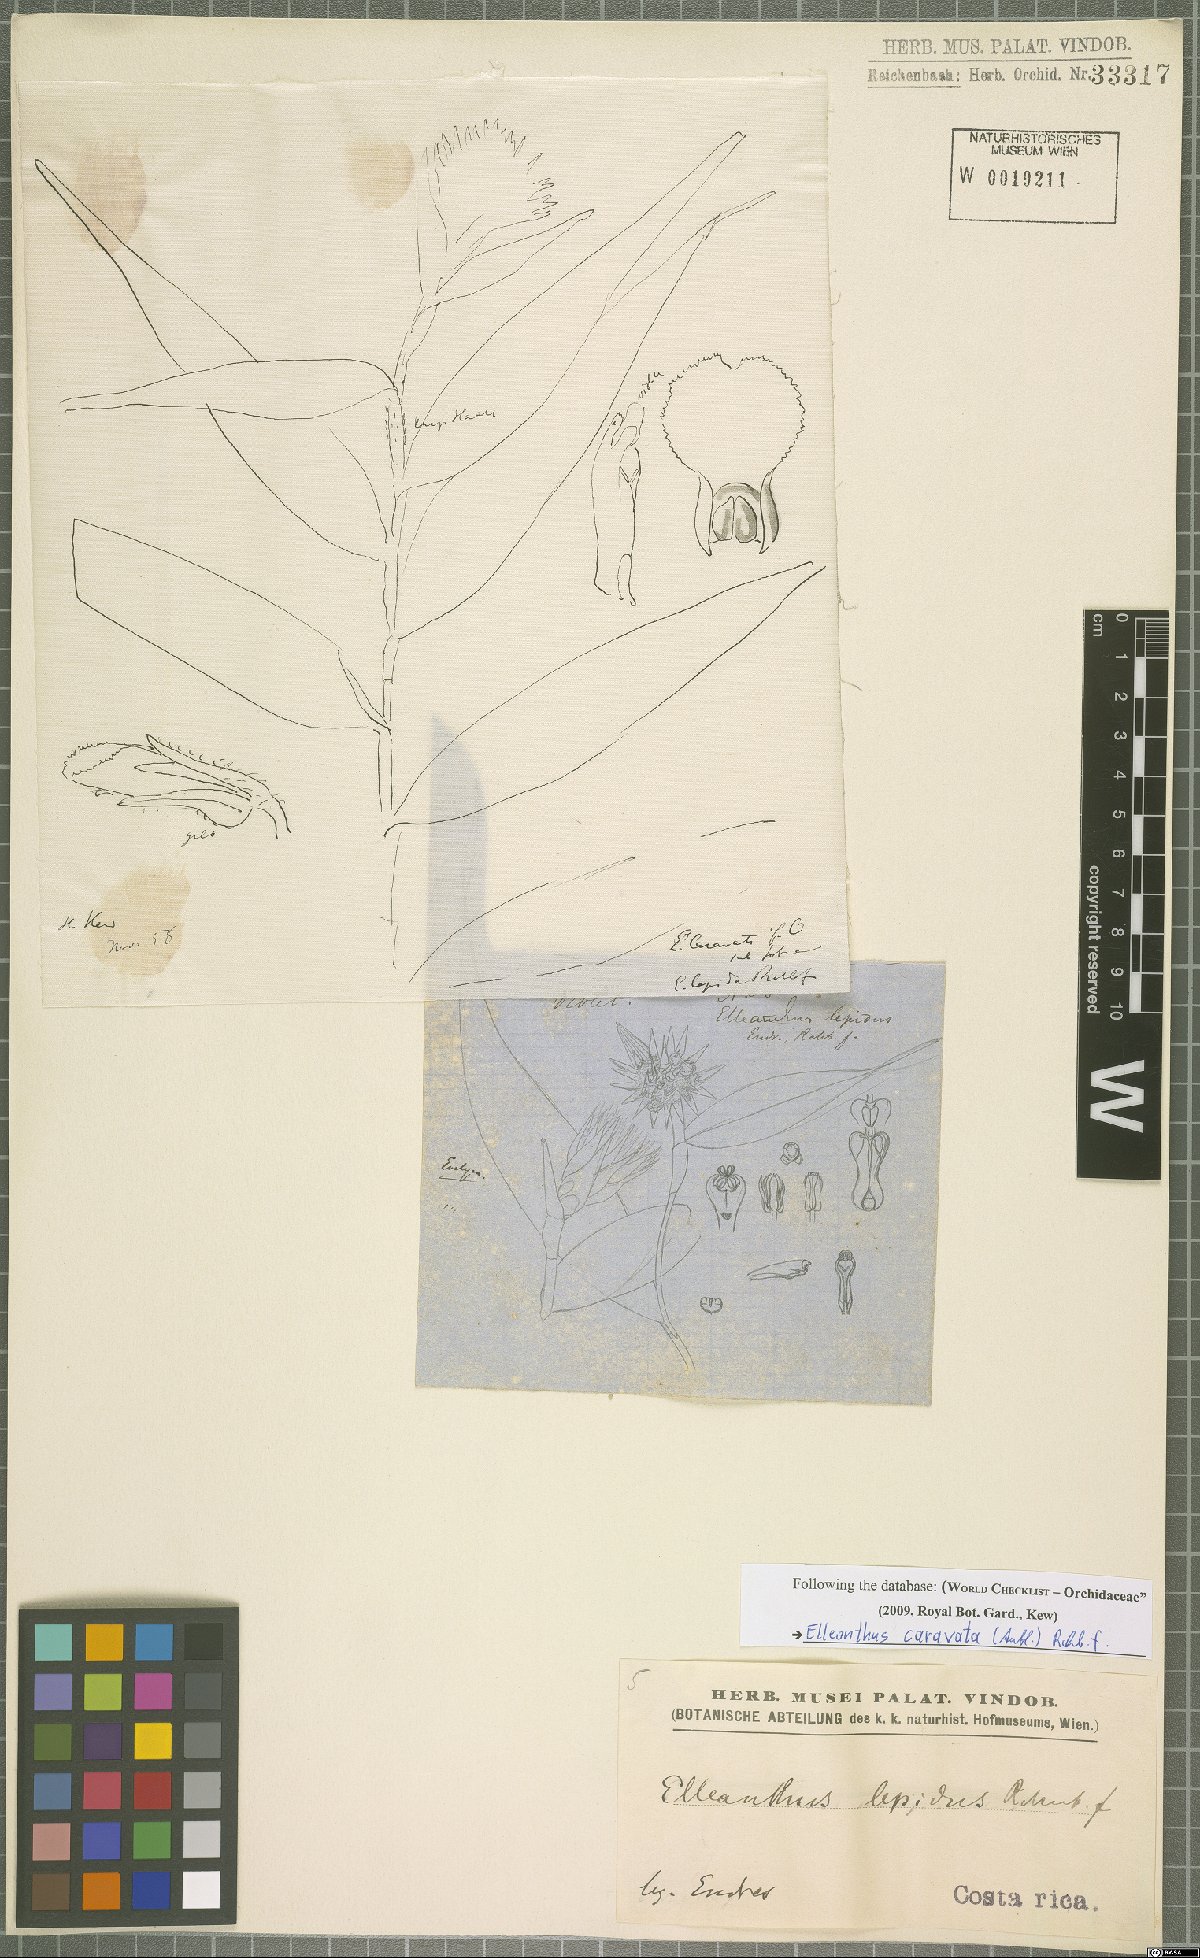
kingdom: Plantae
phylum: Tracheophyta
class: Liliopsida
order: Asparagales
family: Orchidaceae
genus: Elleanthus
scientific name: Elleanthus caravata
